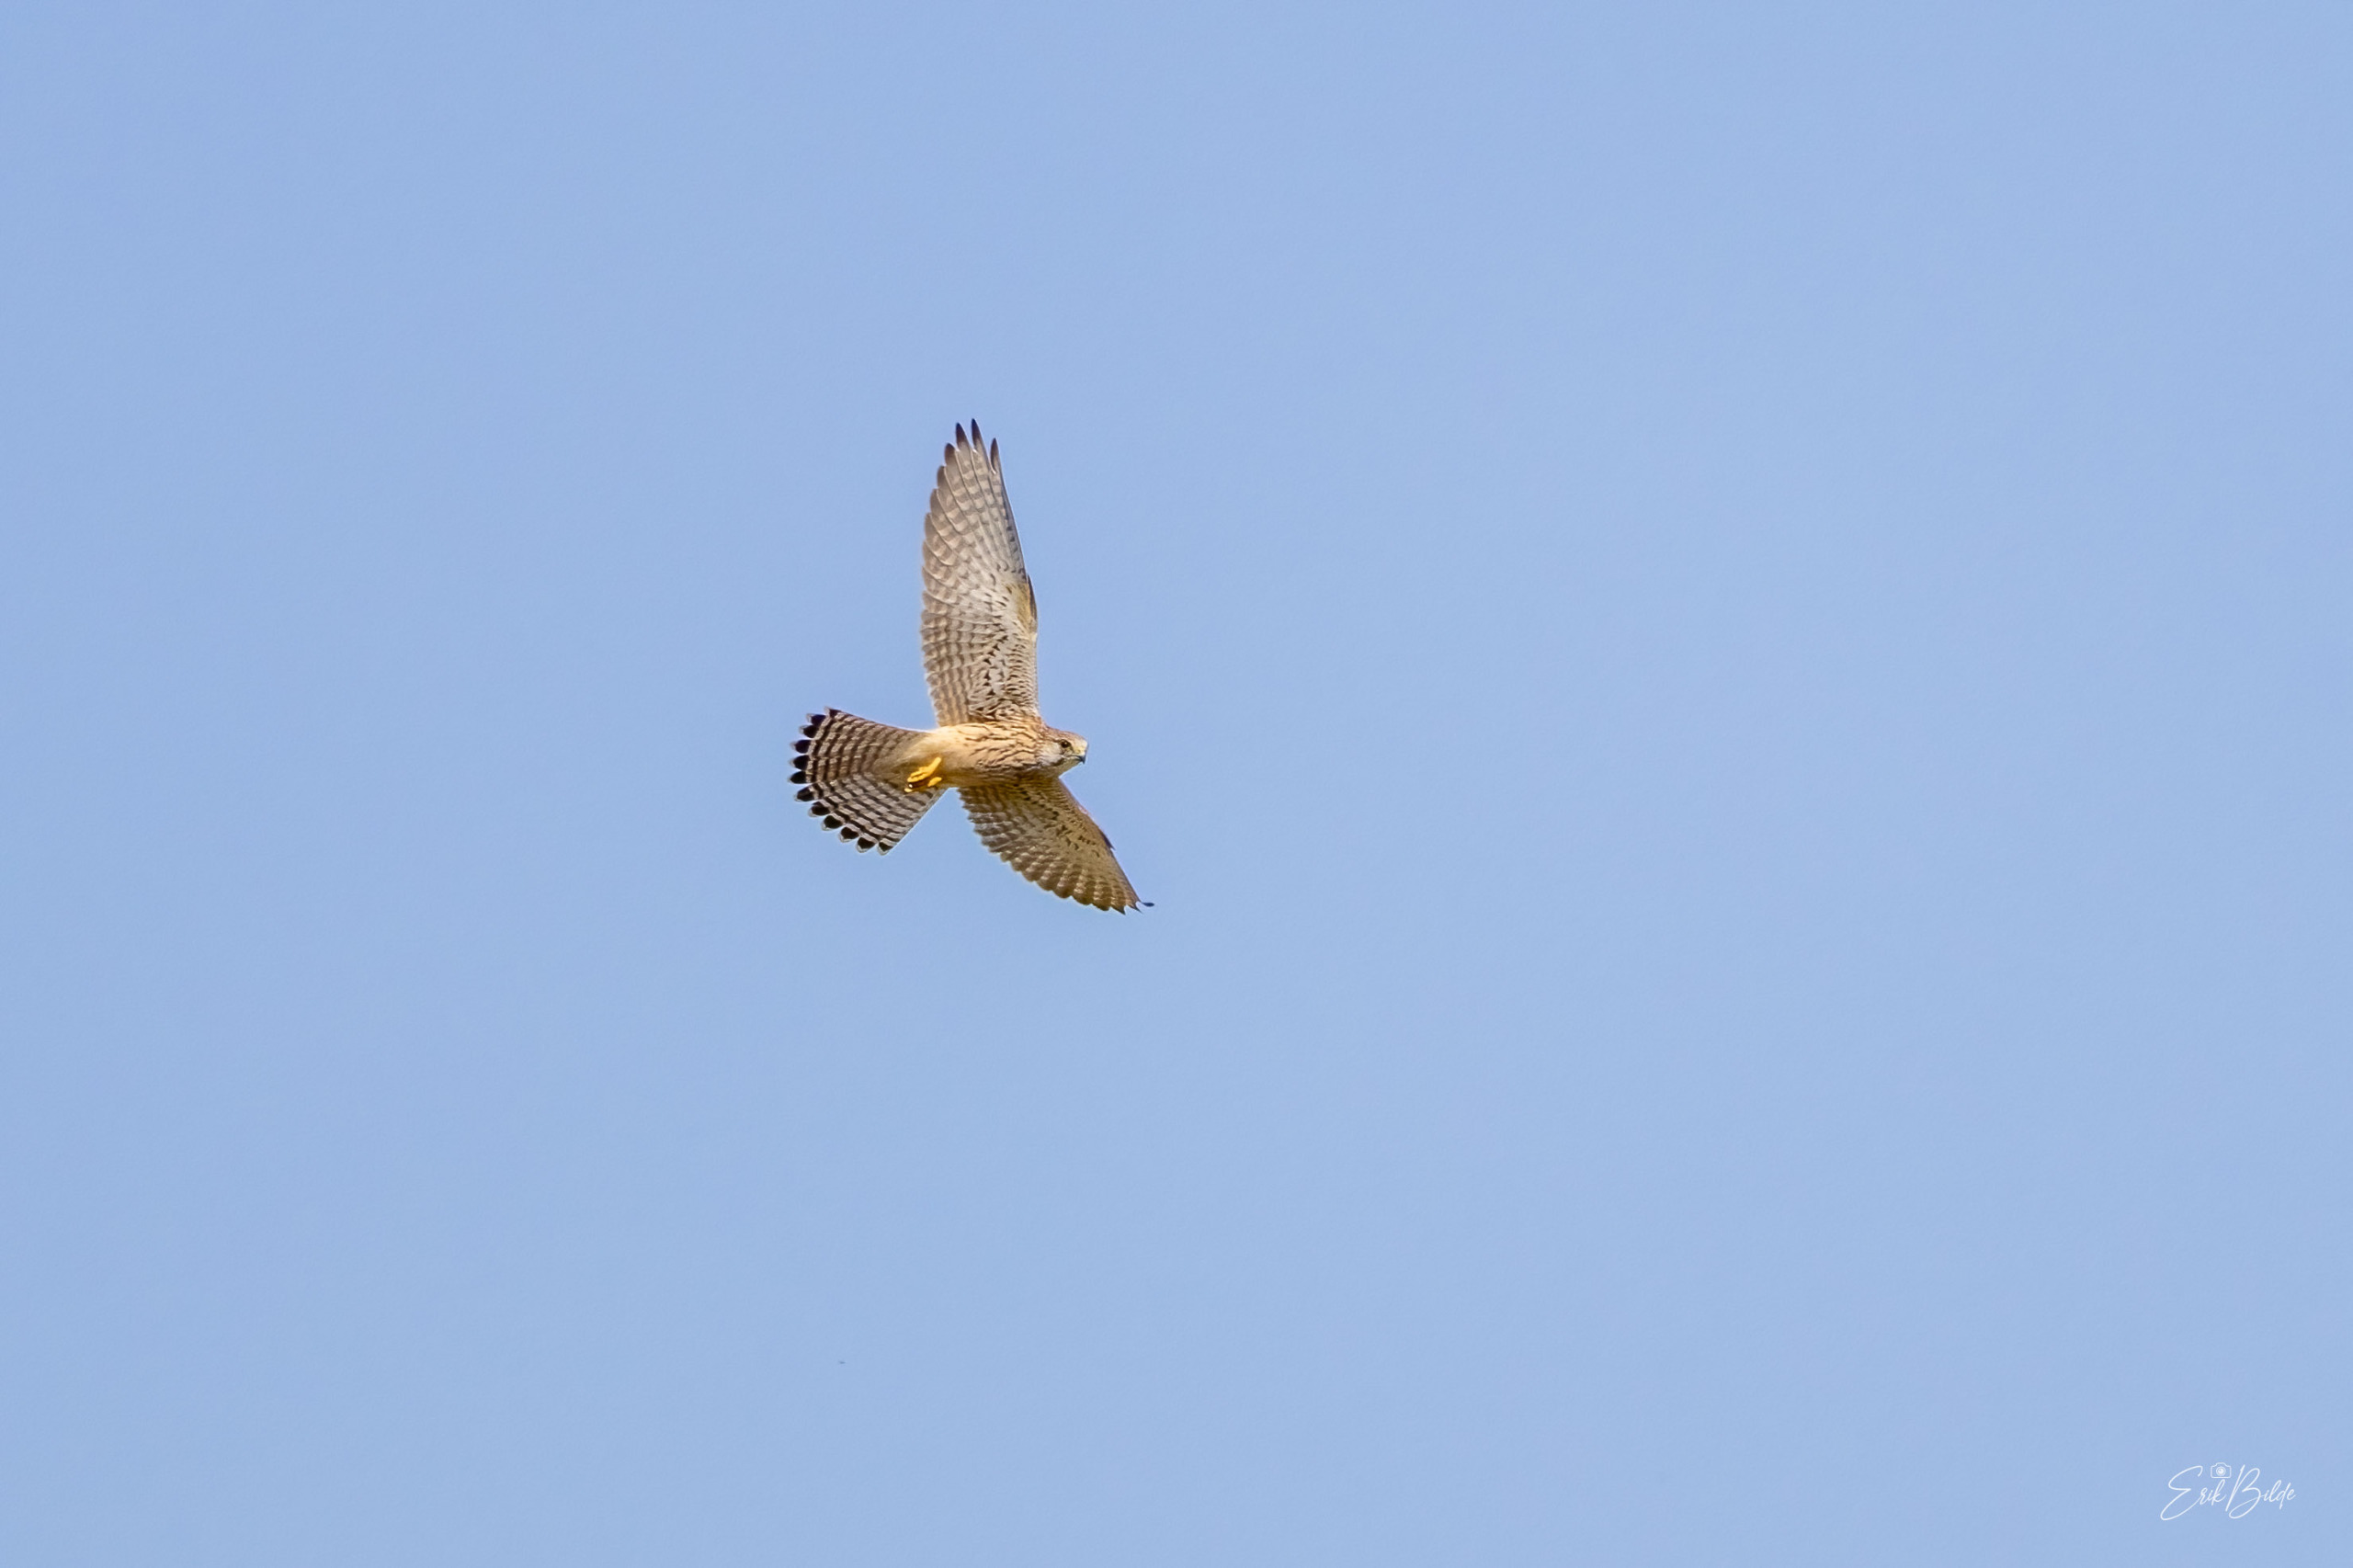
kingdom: Animalia
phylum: Chordata
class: Aves
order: Falconiformes
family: Falconidae
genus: Falco
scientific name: Falco tinnunculus
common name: Tårnfalk
